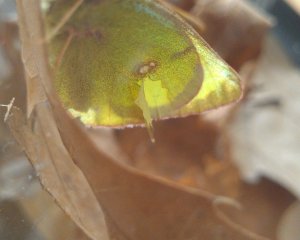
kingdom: Animalia
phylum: Arthropoda
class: Insecta
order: Lepidoptera
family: Pieridae
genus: Colias
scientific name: Colias philodice
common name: Clouded Sulphur
